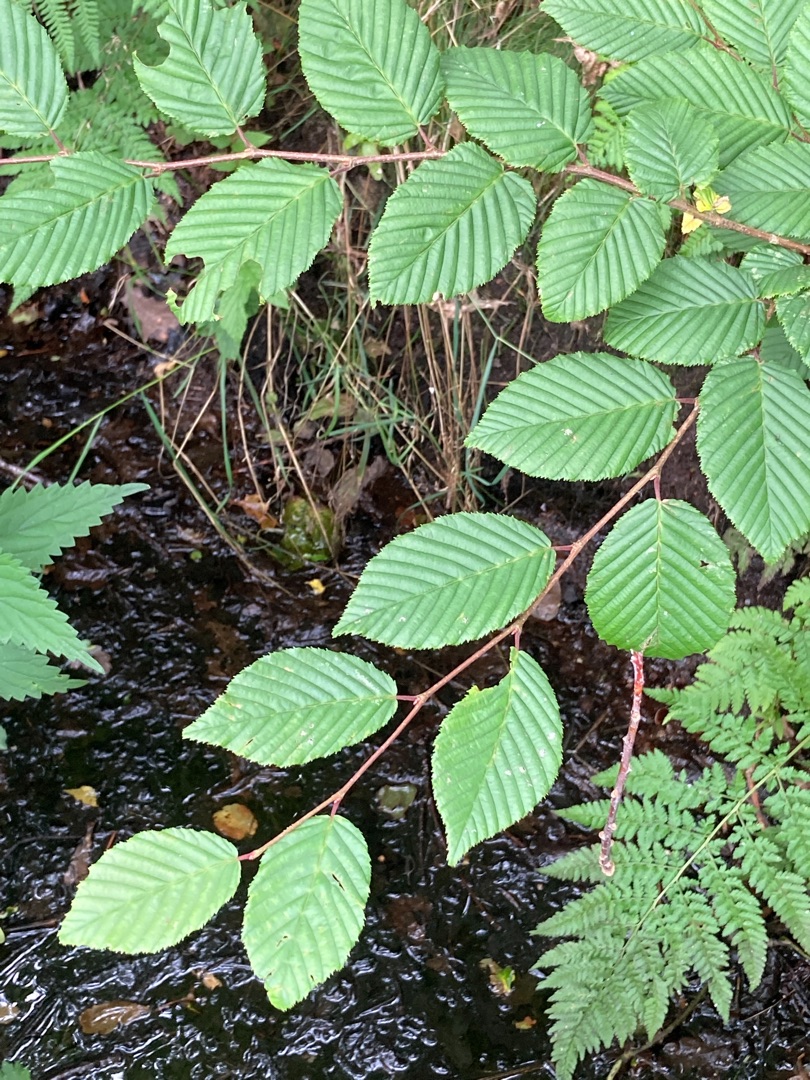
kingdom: Plantae
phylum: Tracheophyta
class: Magnoliopsida
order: Fagales
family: Betulaceae
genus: Carpinus
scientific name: Carpinus betulus
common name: Avnbøg
